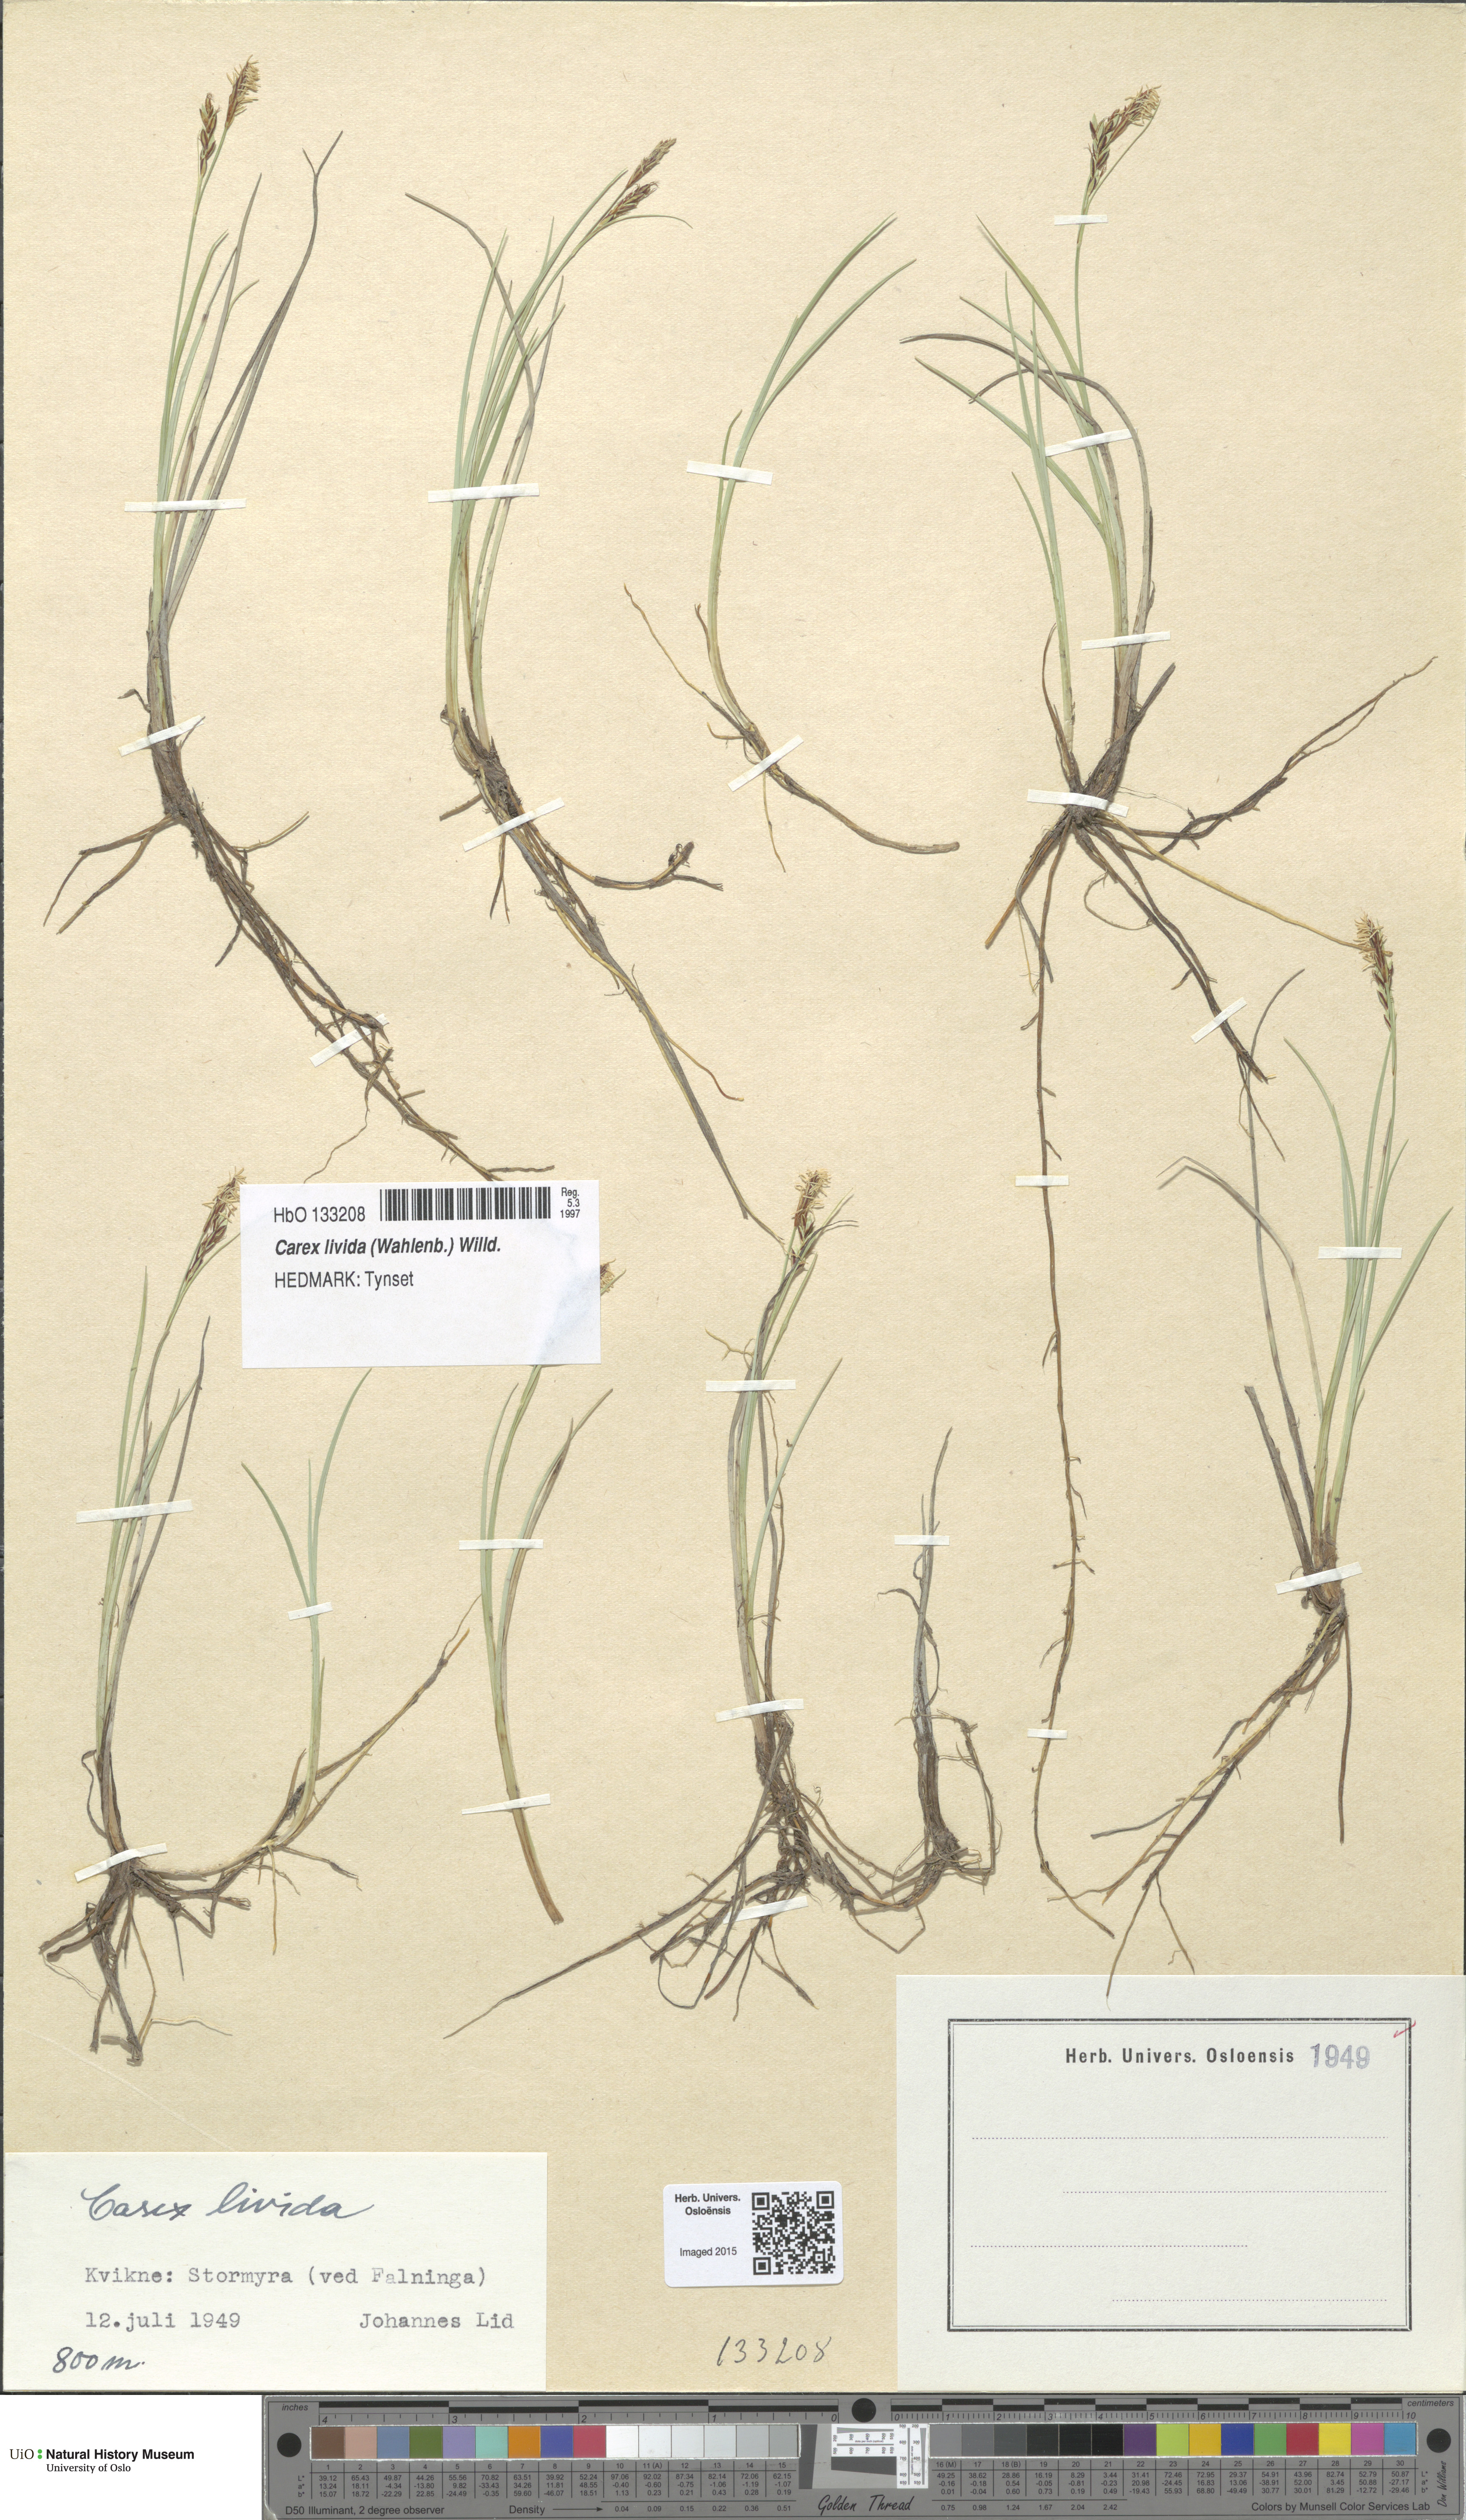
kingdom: Plantae
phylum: Tracheophyta
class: Liliopsida
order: Poales
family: Cyperaceae
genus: Carex
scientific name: Carex livida
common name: Livid sedge
